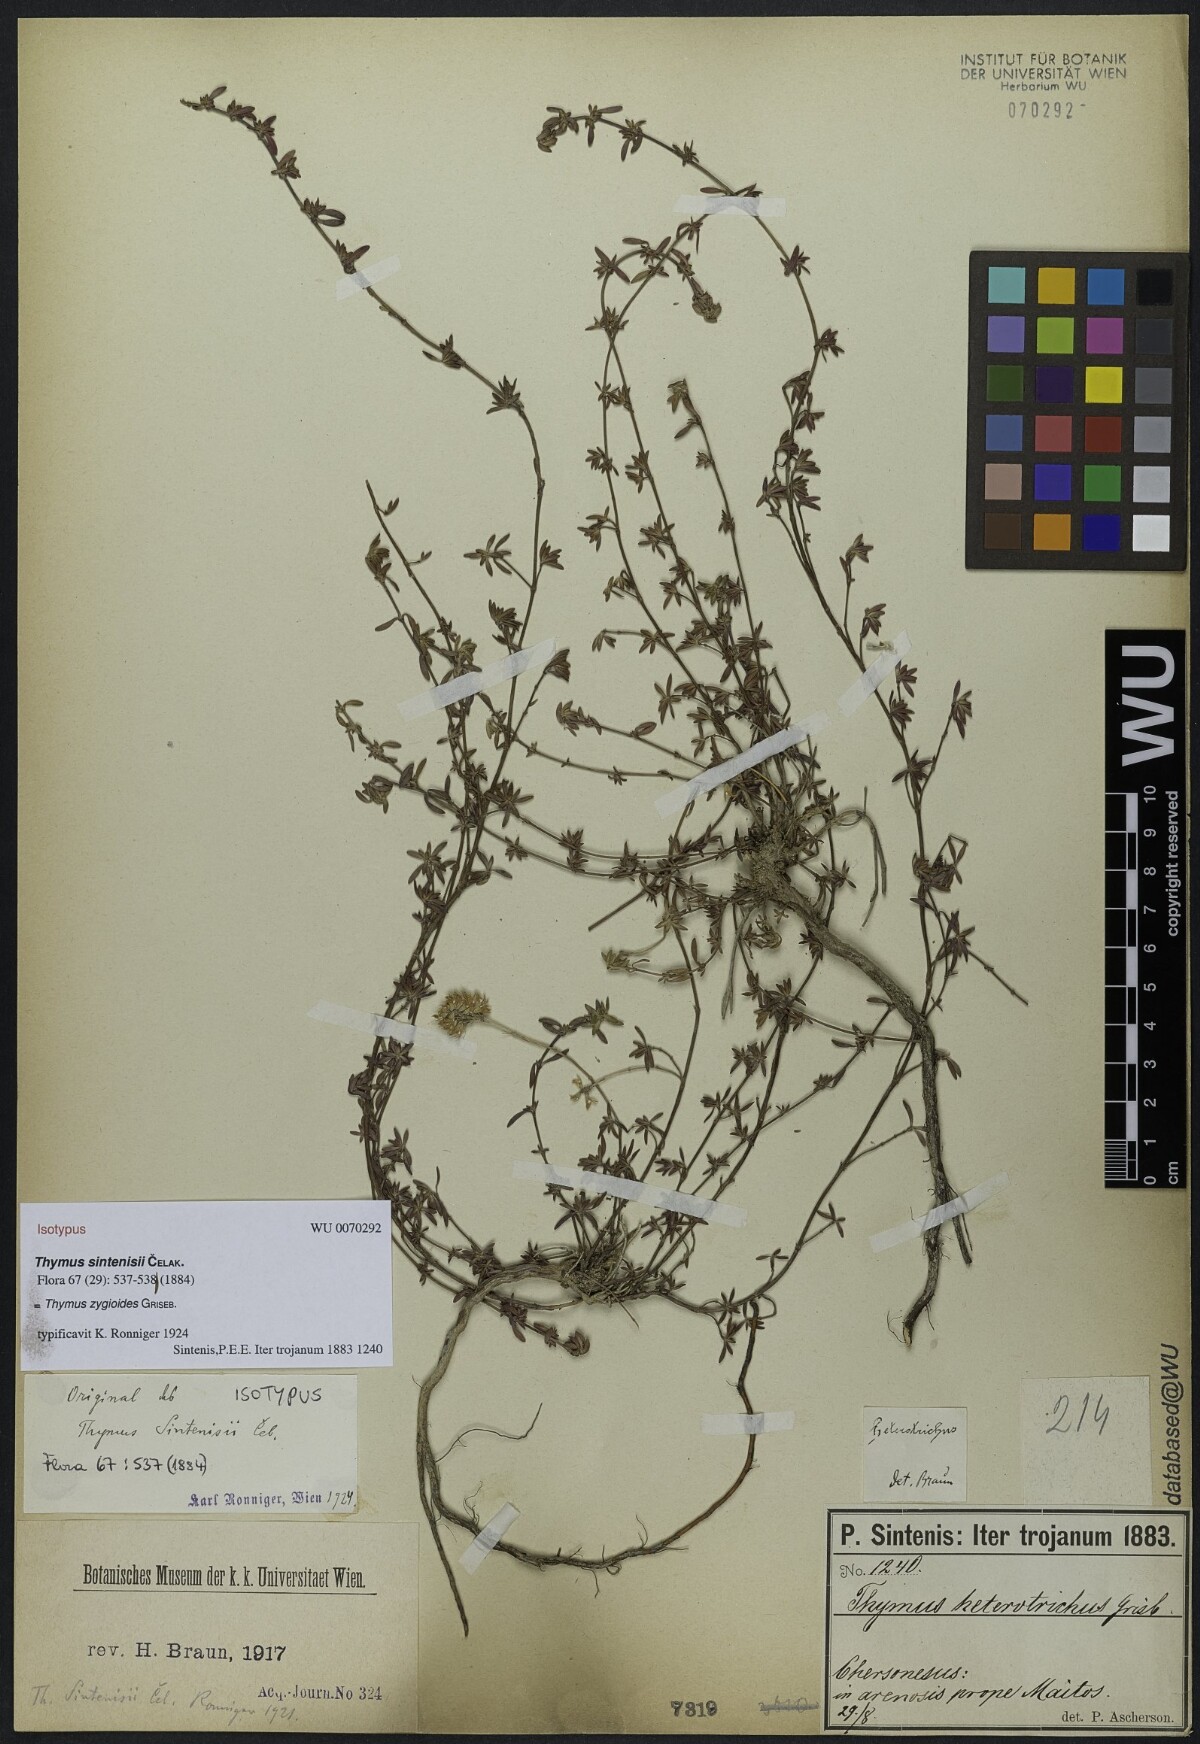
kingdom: Plantae
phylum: Tracheophyta
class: Magnoliopsida
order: Lamiales
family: Lamiaceae
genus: Thymus
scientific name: Thymus zygioides
